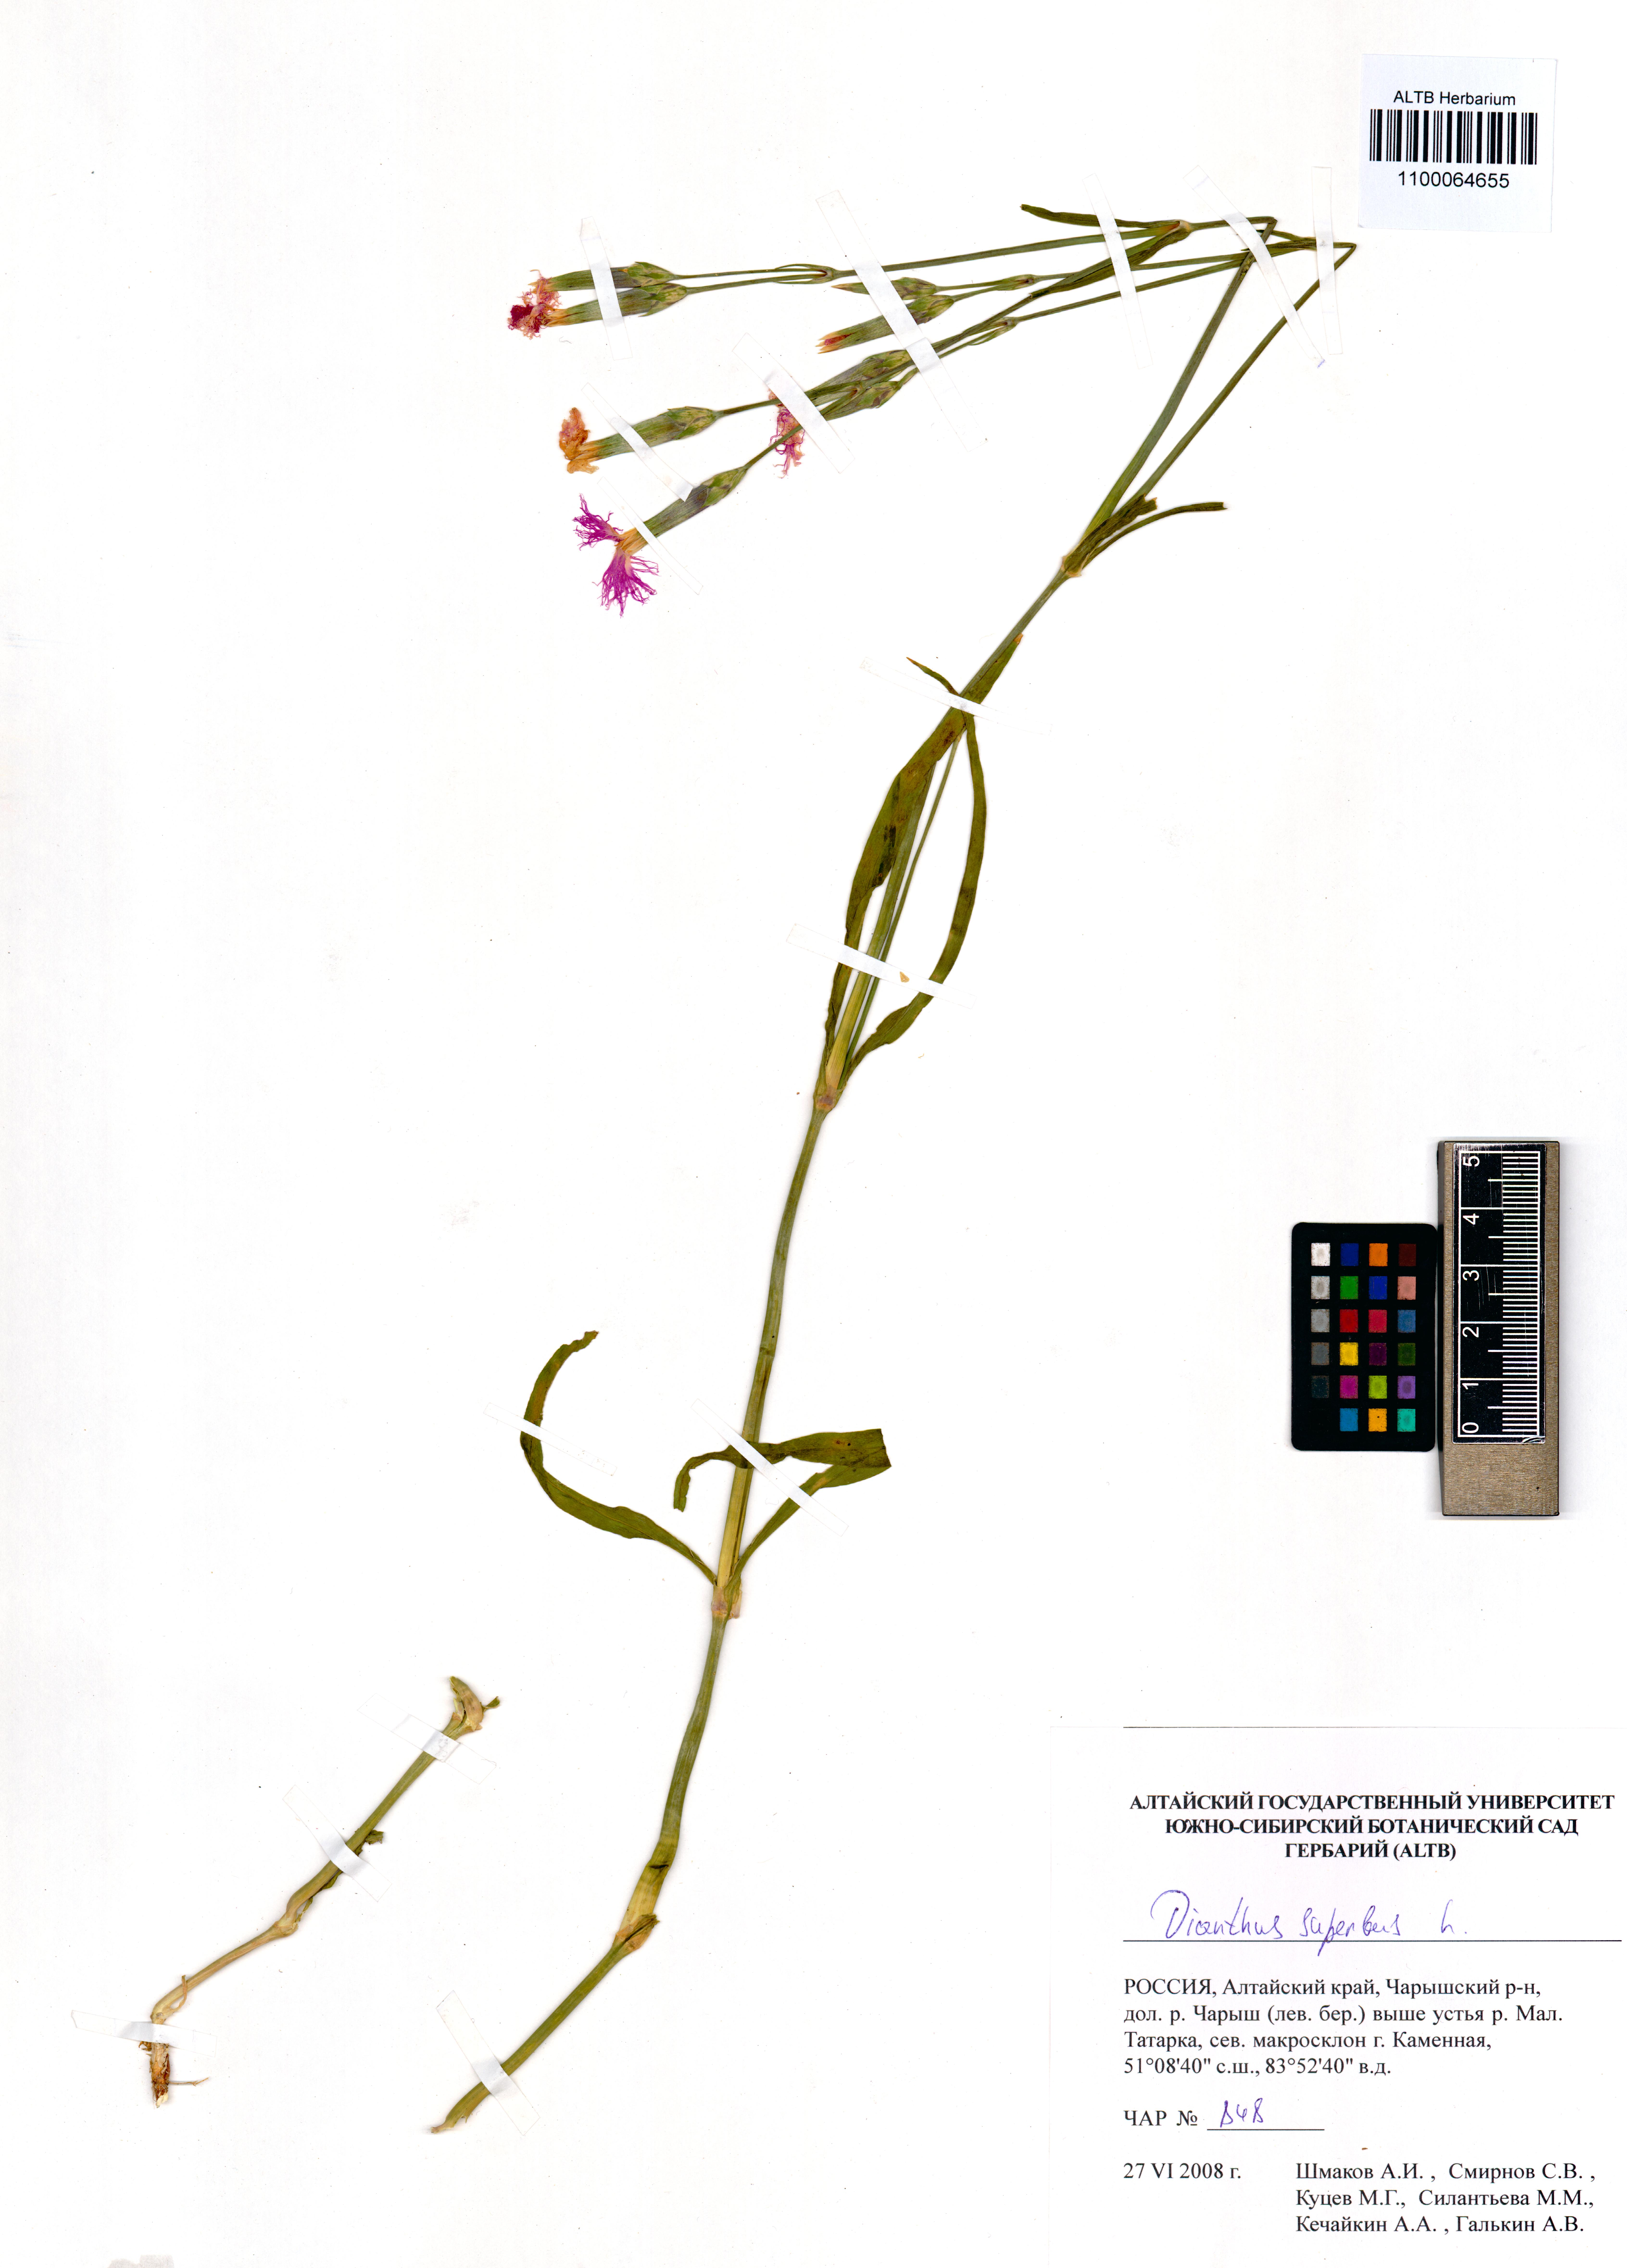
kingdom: Plantae
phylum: Tracheophyta
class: Magnoliopsida
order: Caryophyllales
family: Caryophyllaceae
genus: Dianthus
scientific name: Dianthus superbus
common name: Fringed pink
